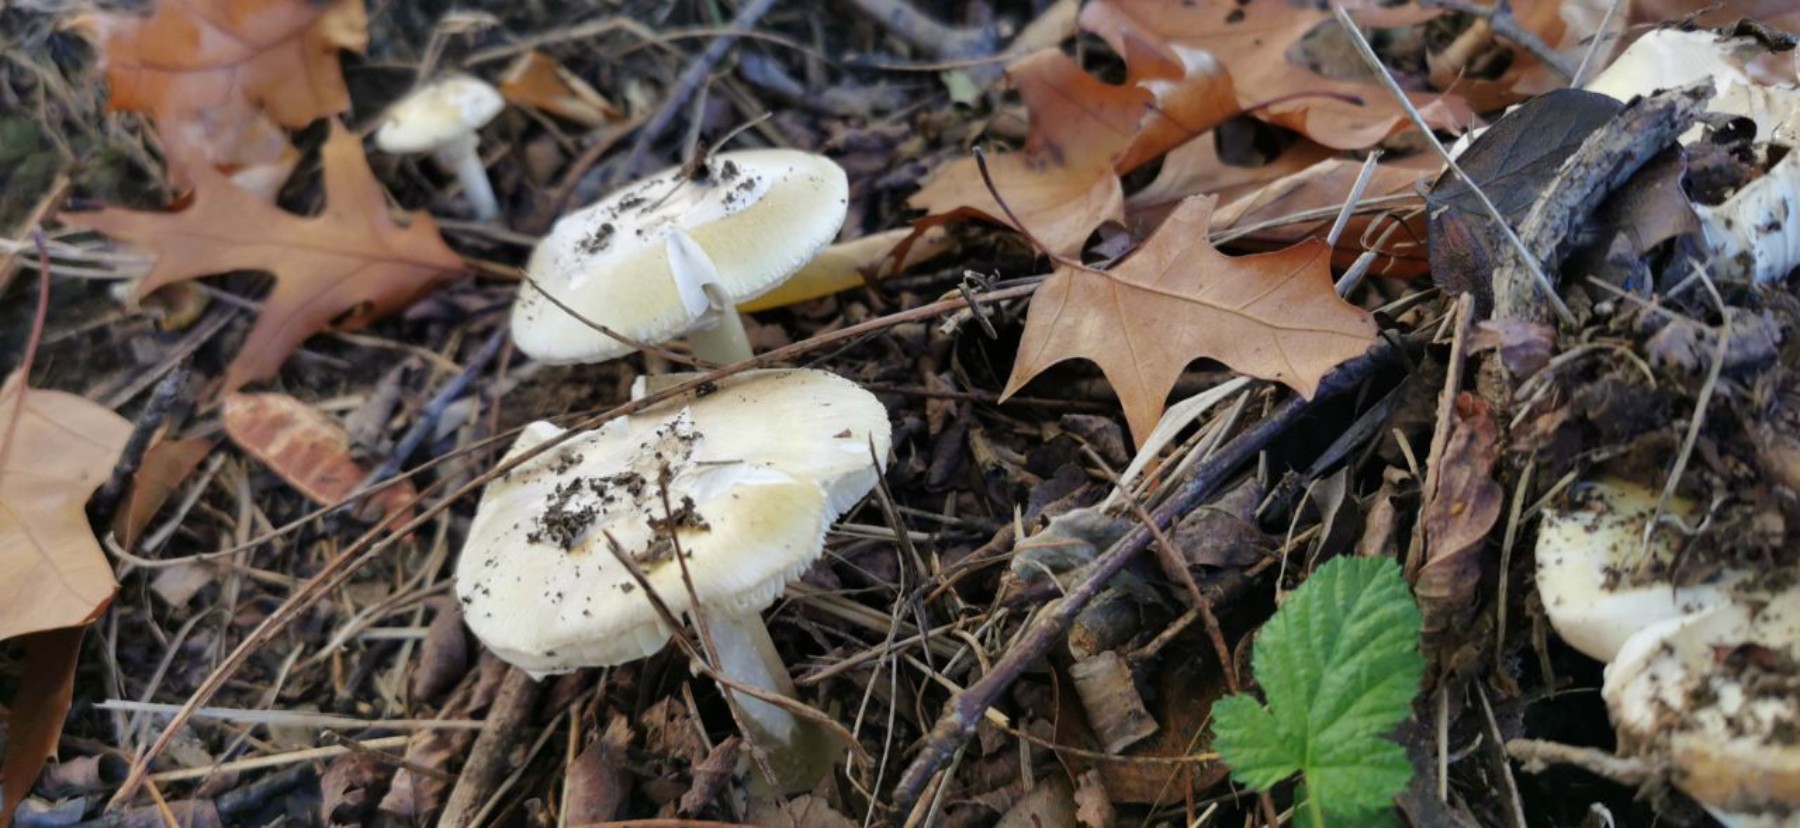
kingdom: Fungi
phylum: Basidiomycota
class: Agaricomycetes
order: Agaricales
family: Amanitaceae
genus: Amanita
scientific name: Amanita phalloides
